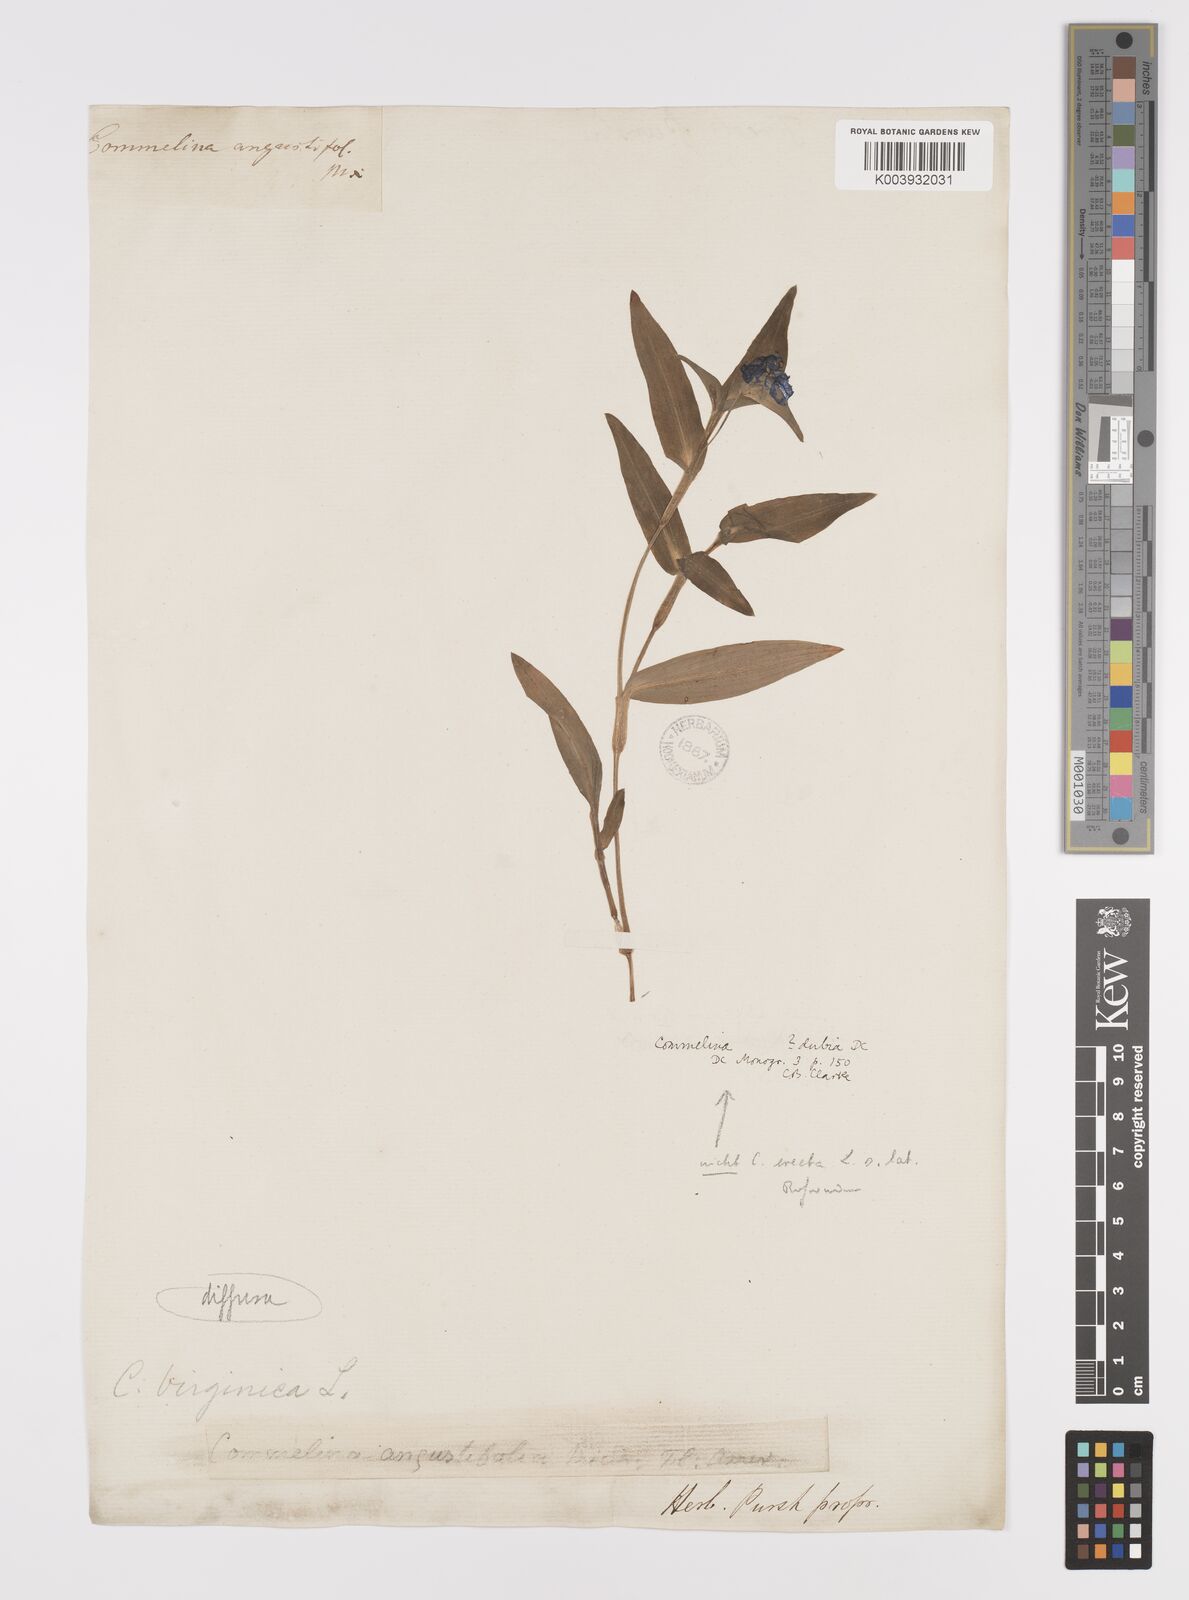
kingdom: Plantae
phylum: Tracheophyta
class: Liliopsida
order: Commelinales
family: Commelinaceae
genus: Commelina
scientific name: Commelina diffusa
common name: Climbing dayflower
